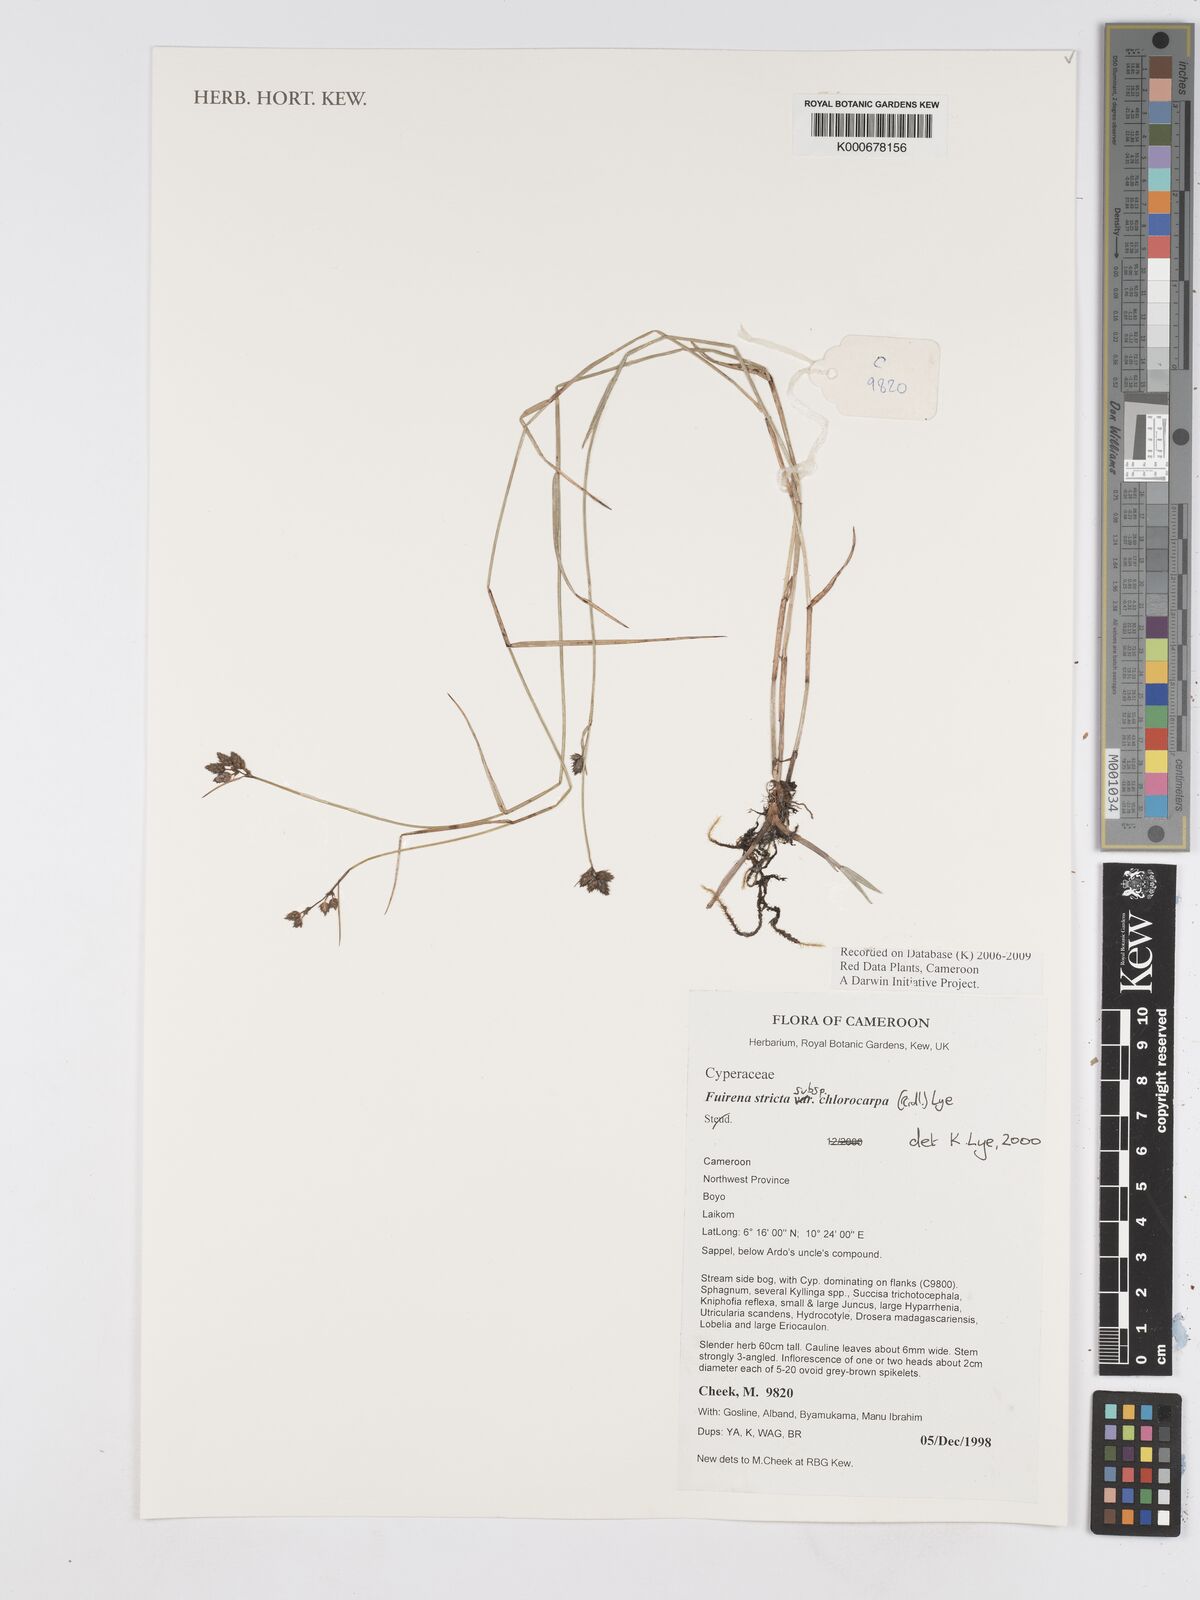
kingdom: Plantae
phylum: Tracheophyta
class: Liliopsida
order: Poales
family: Cyperaceae
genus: Fuirena
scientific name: Fuirena stricta
